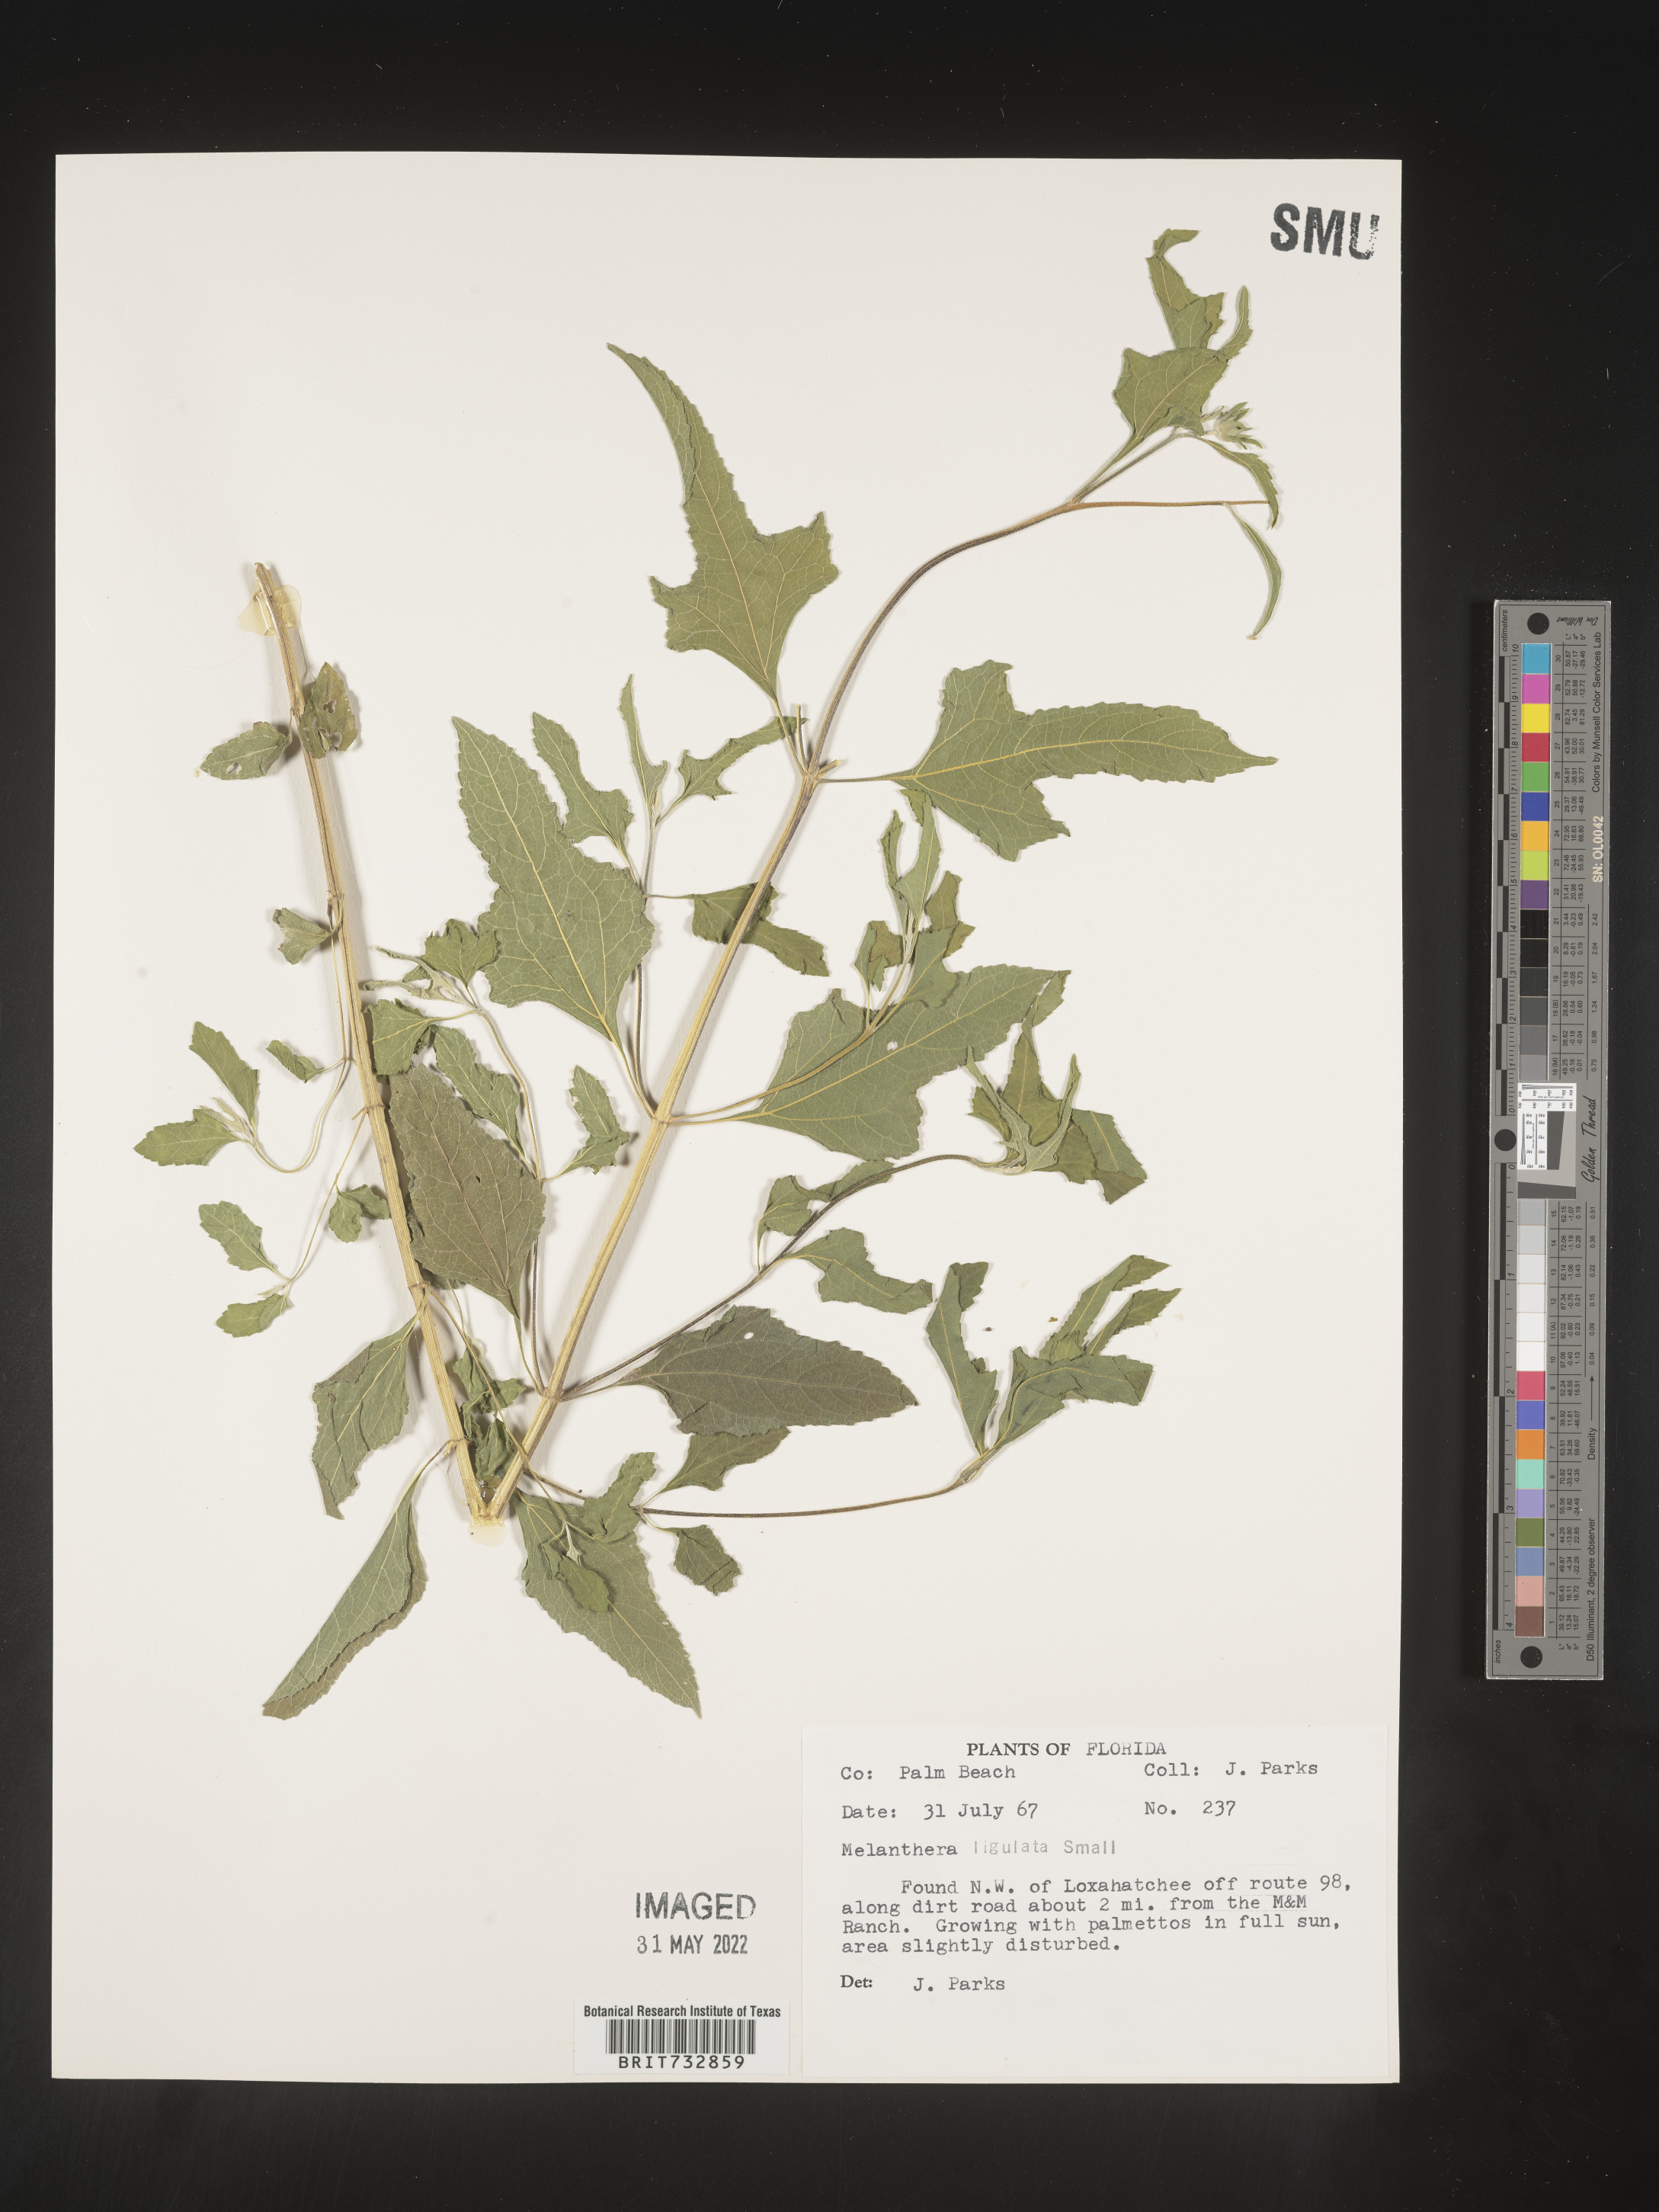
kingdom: Plantae
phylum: Tracheophyta
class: Magnoliopsida
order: Asterales
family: Asteraceae
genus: Melanthera
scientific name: Melanthera nivea
